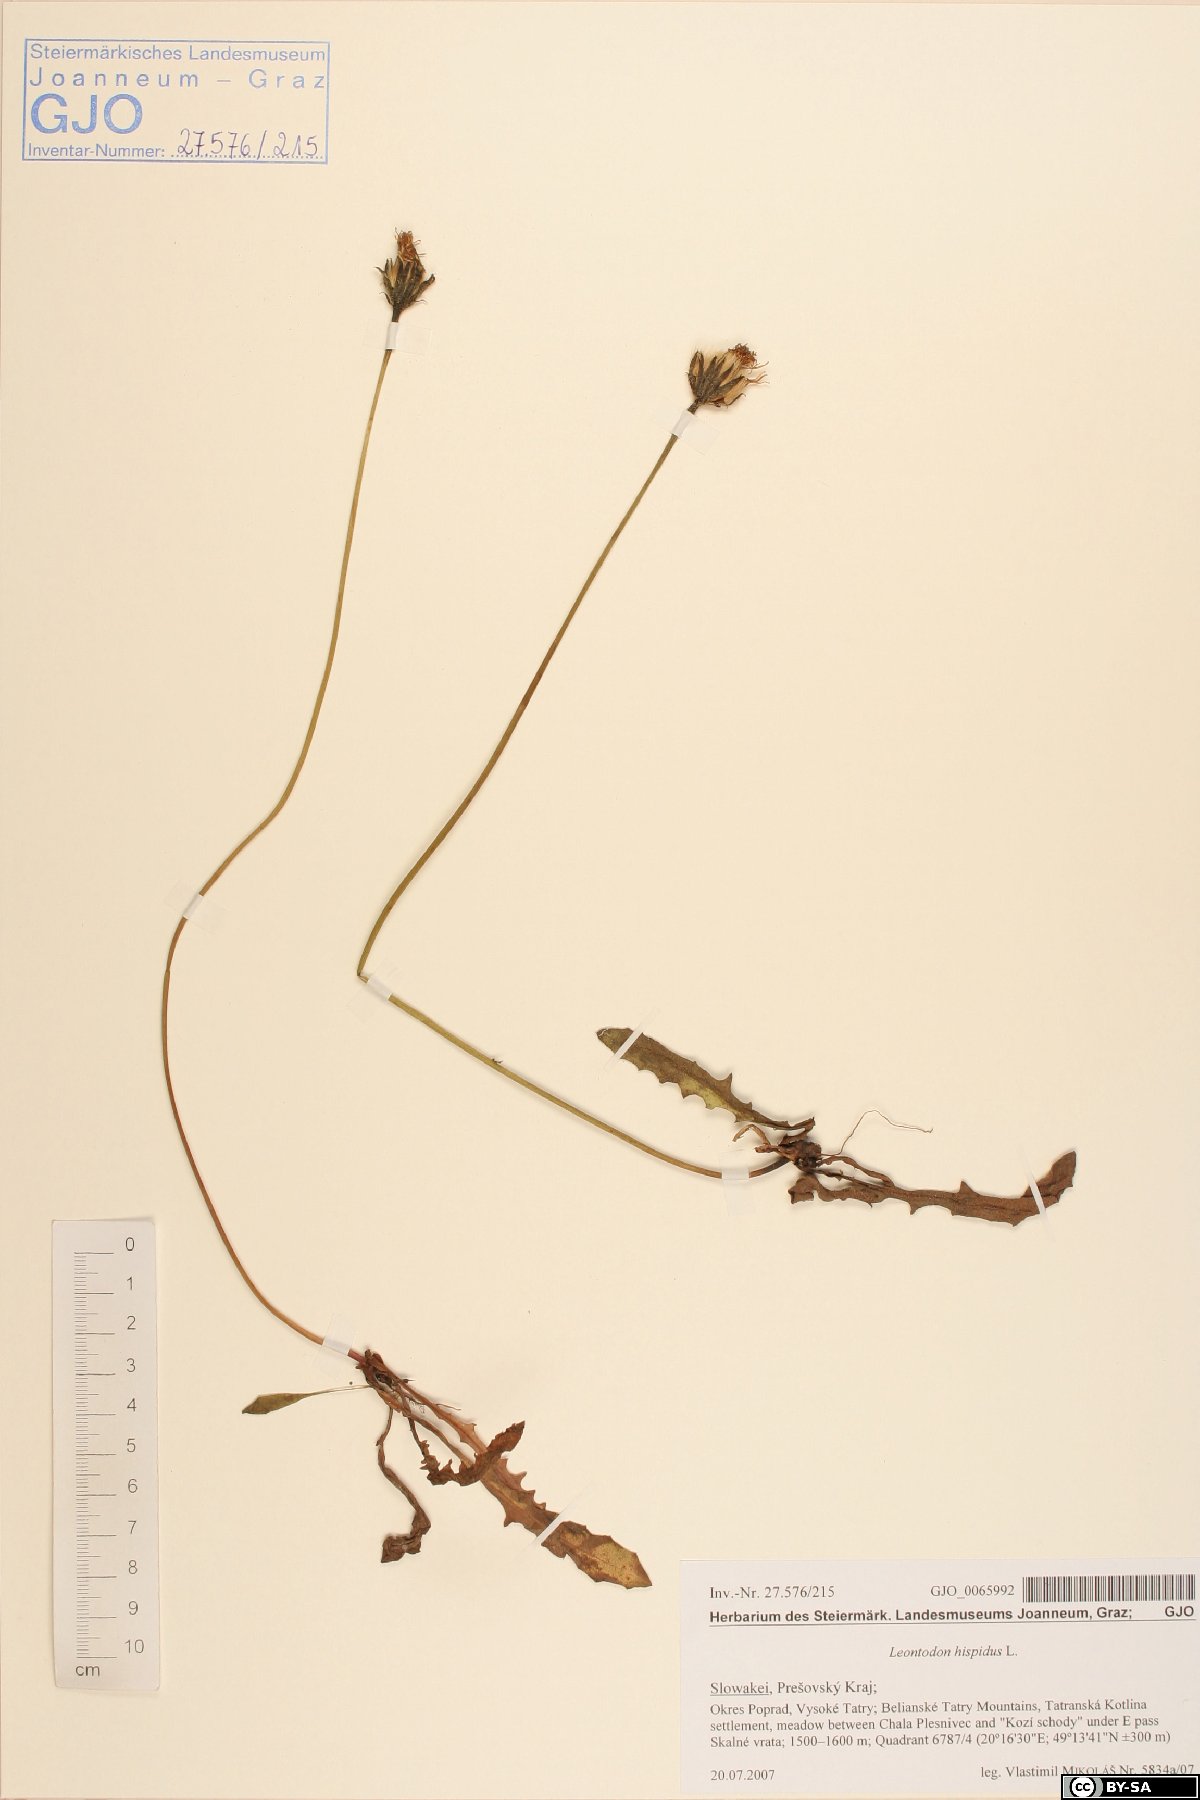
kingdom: Plantae
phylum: Tracheophyta
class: Magnoliopsida
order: Asterales
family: Asteraceae
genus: Leontodon
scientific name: Leontodon hispidus
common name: Rough hawkbit
